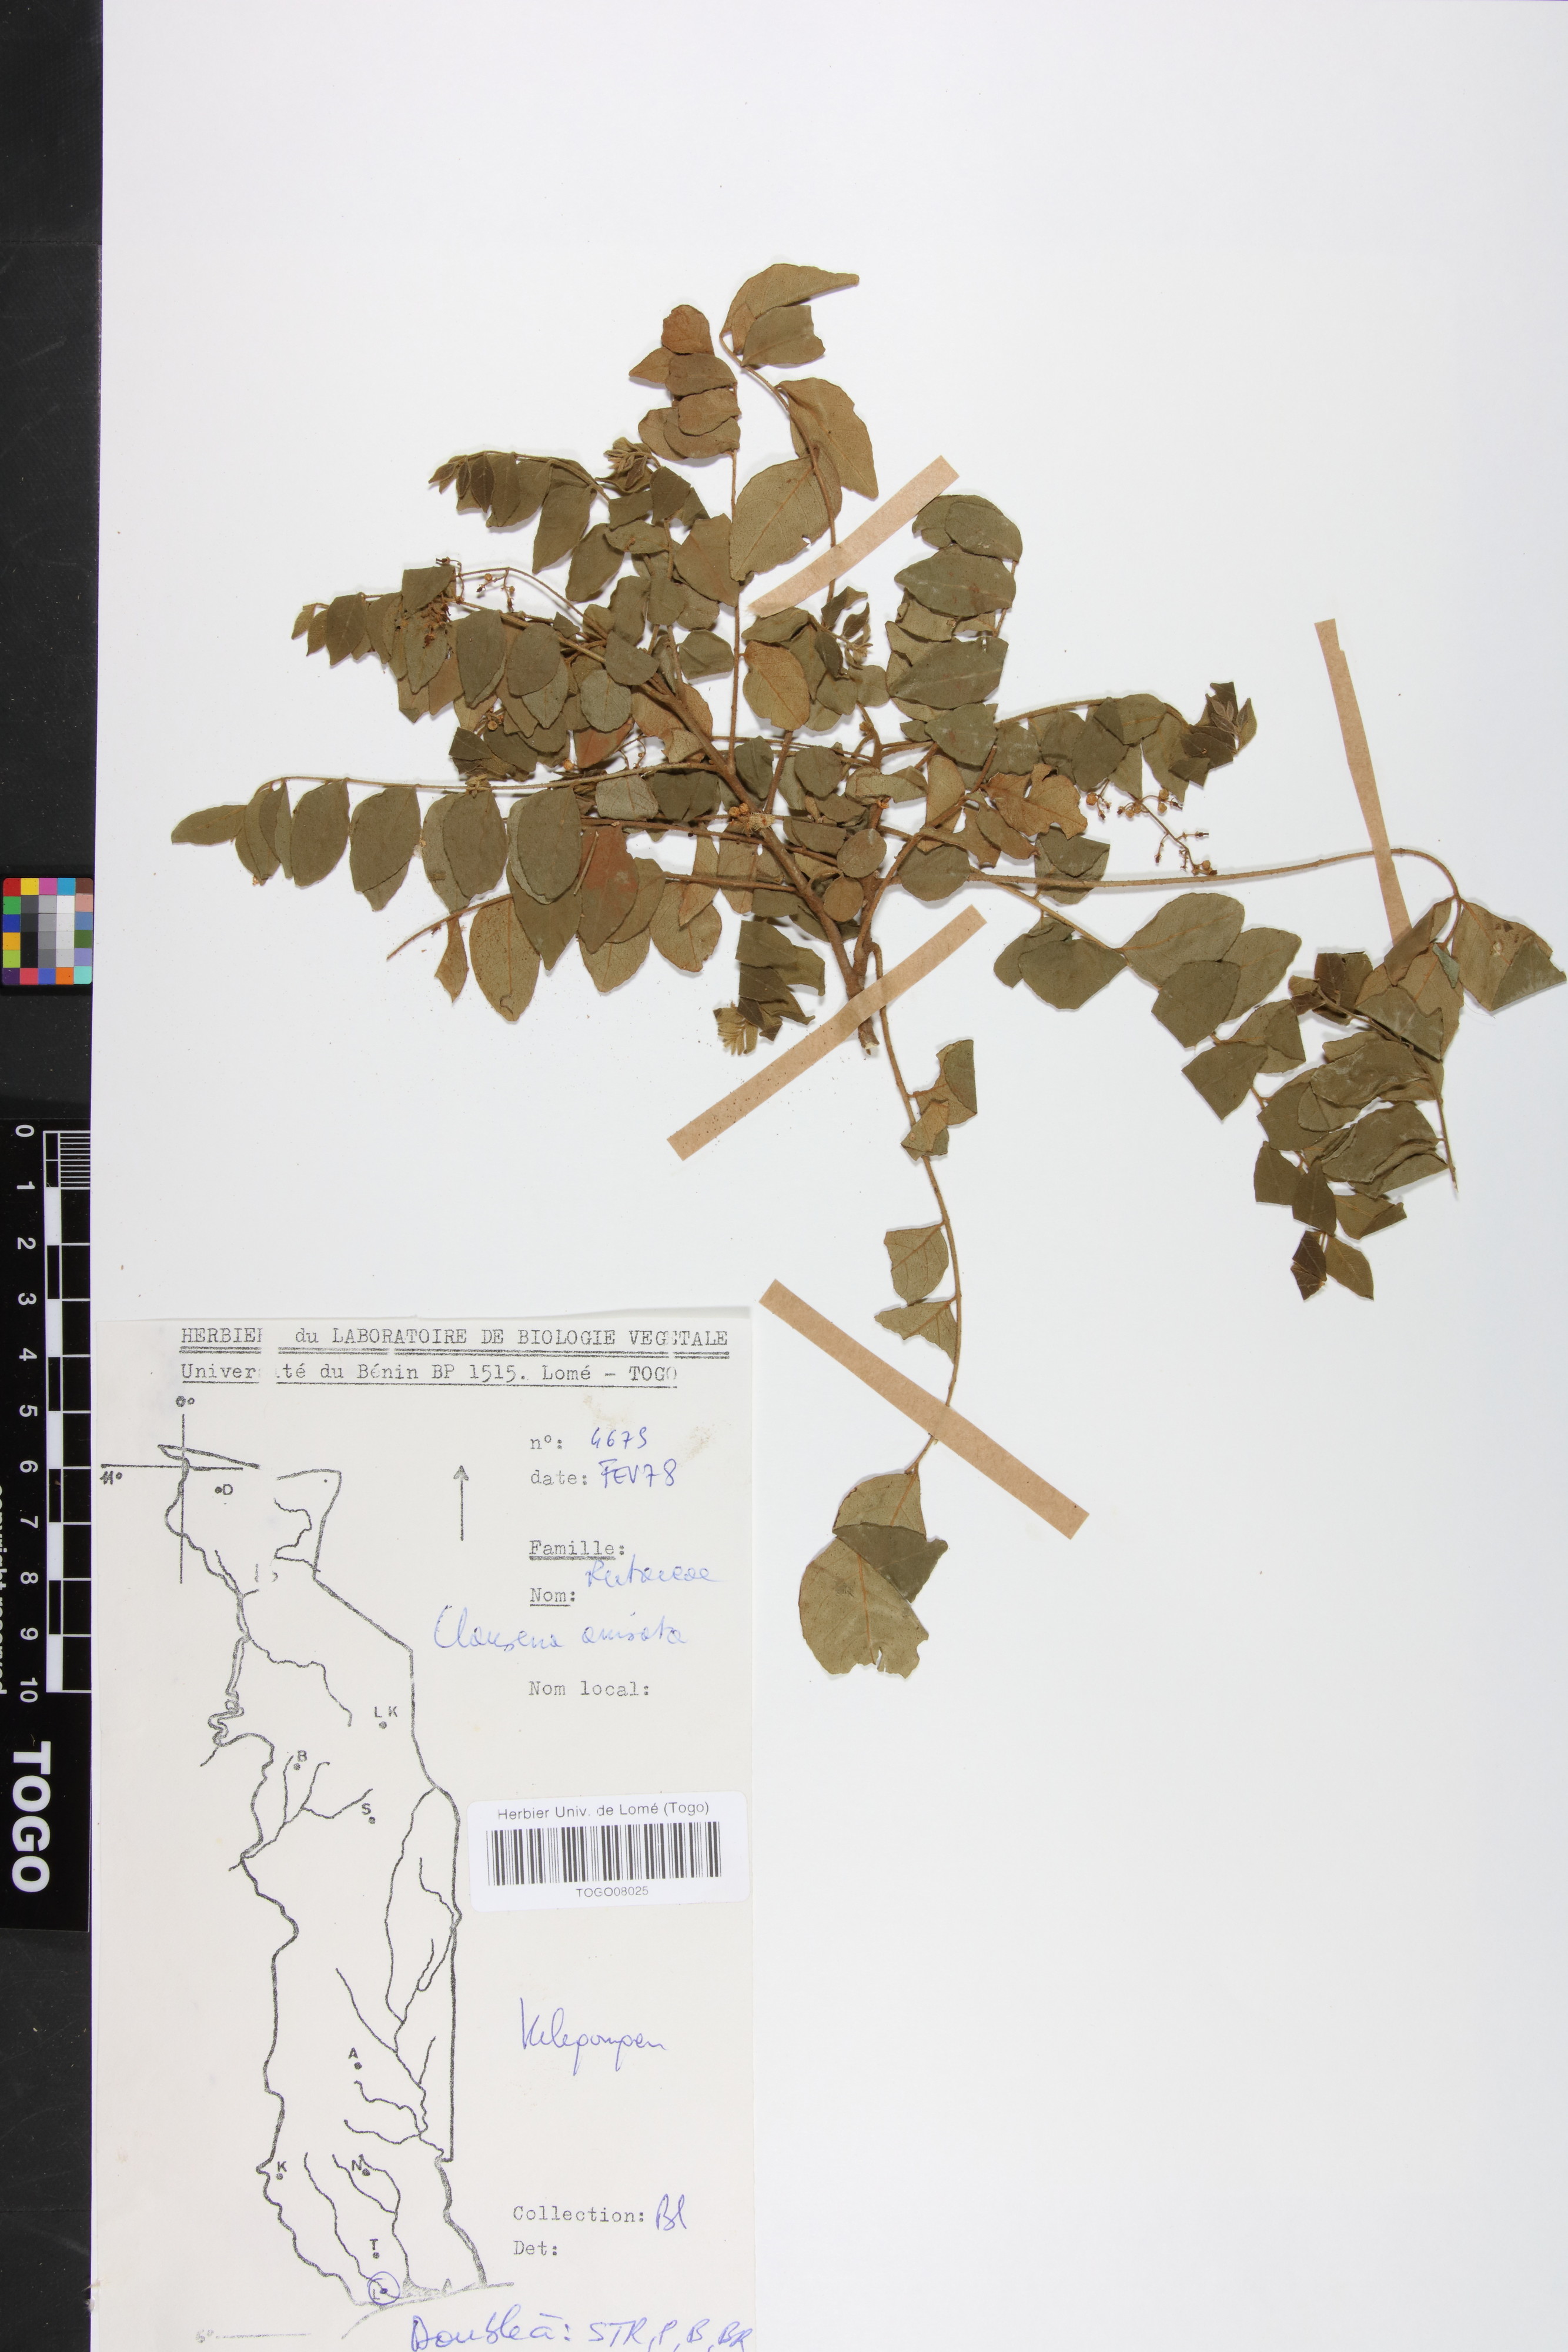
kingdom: Plantae
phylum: Tracheophyta
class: Magnoliopsida
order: Sapindales
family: Rutaceae
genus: Clausena
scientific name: Clausena anisata
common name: Horsewood
